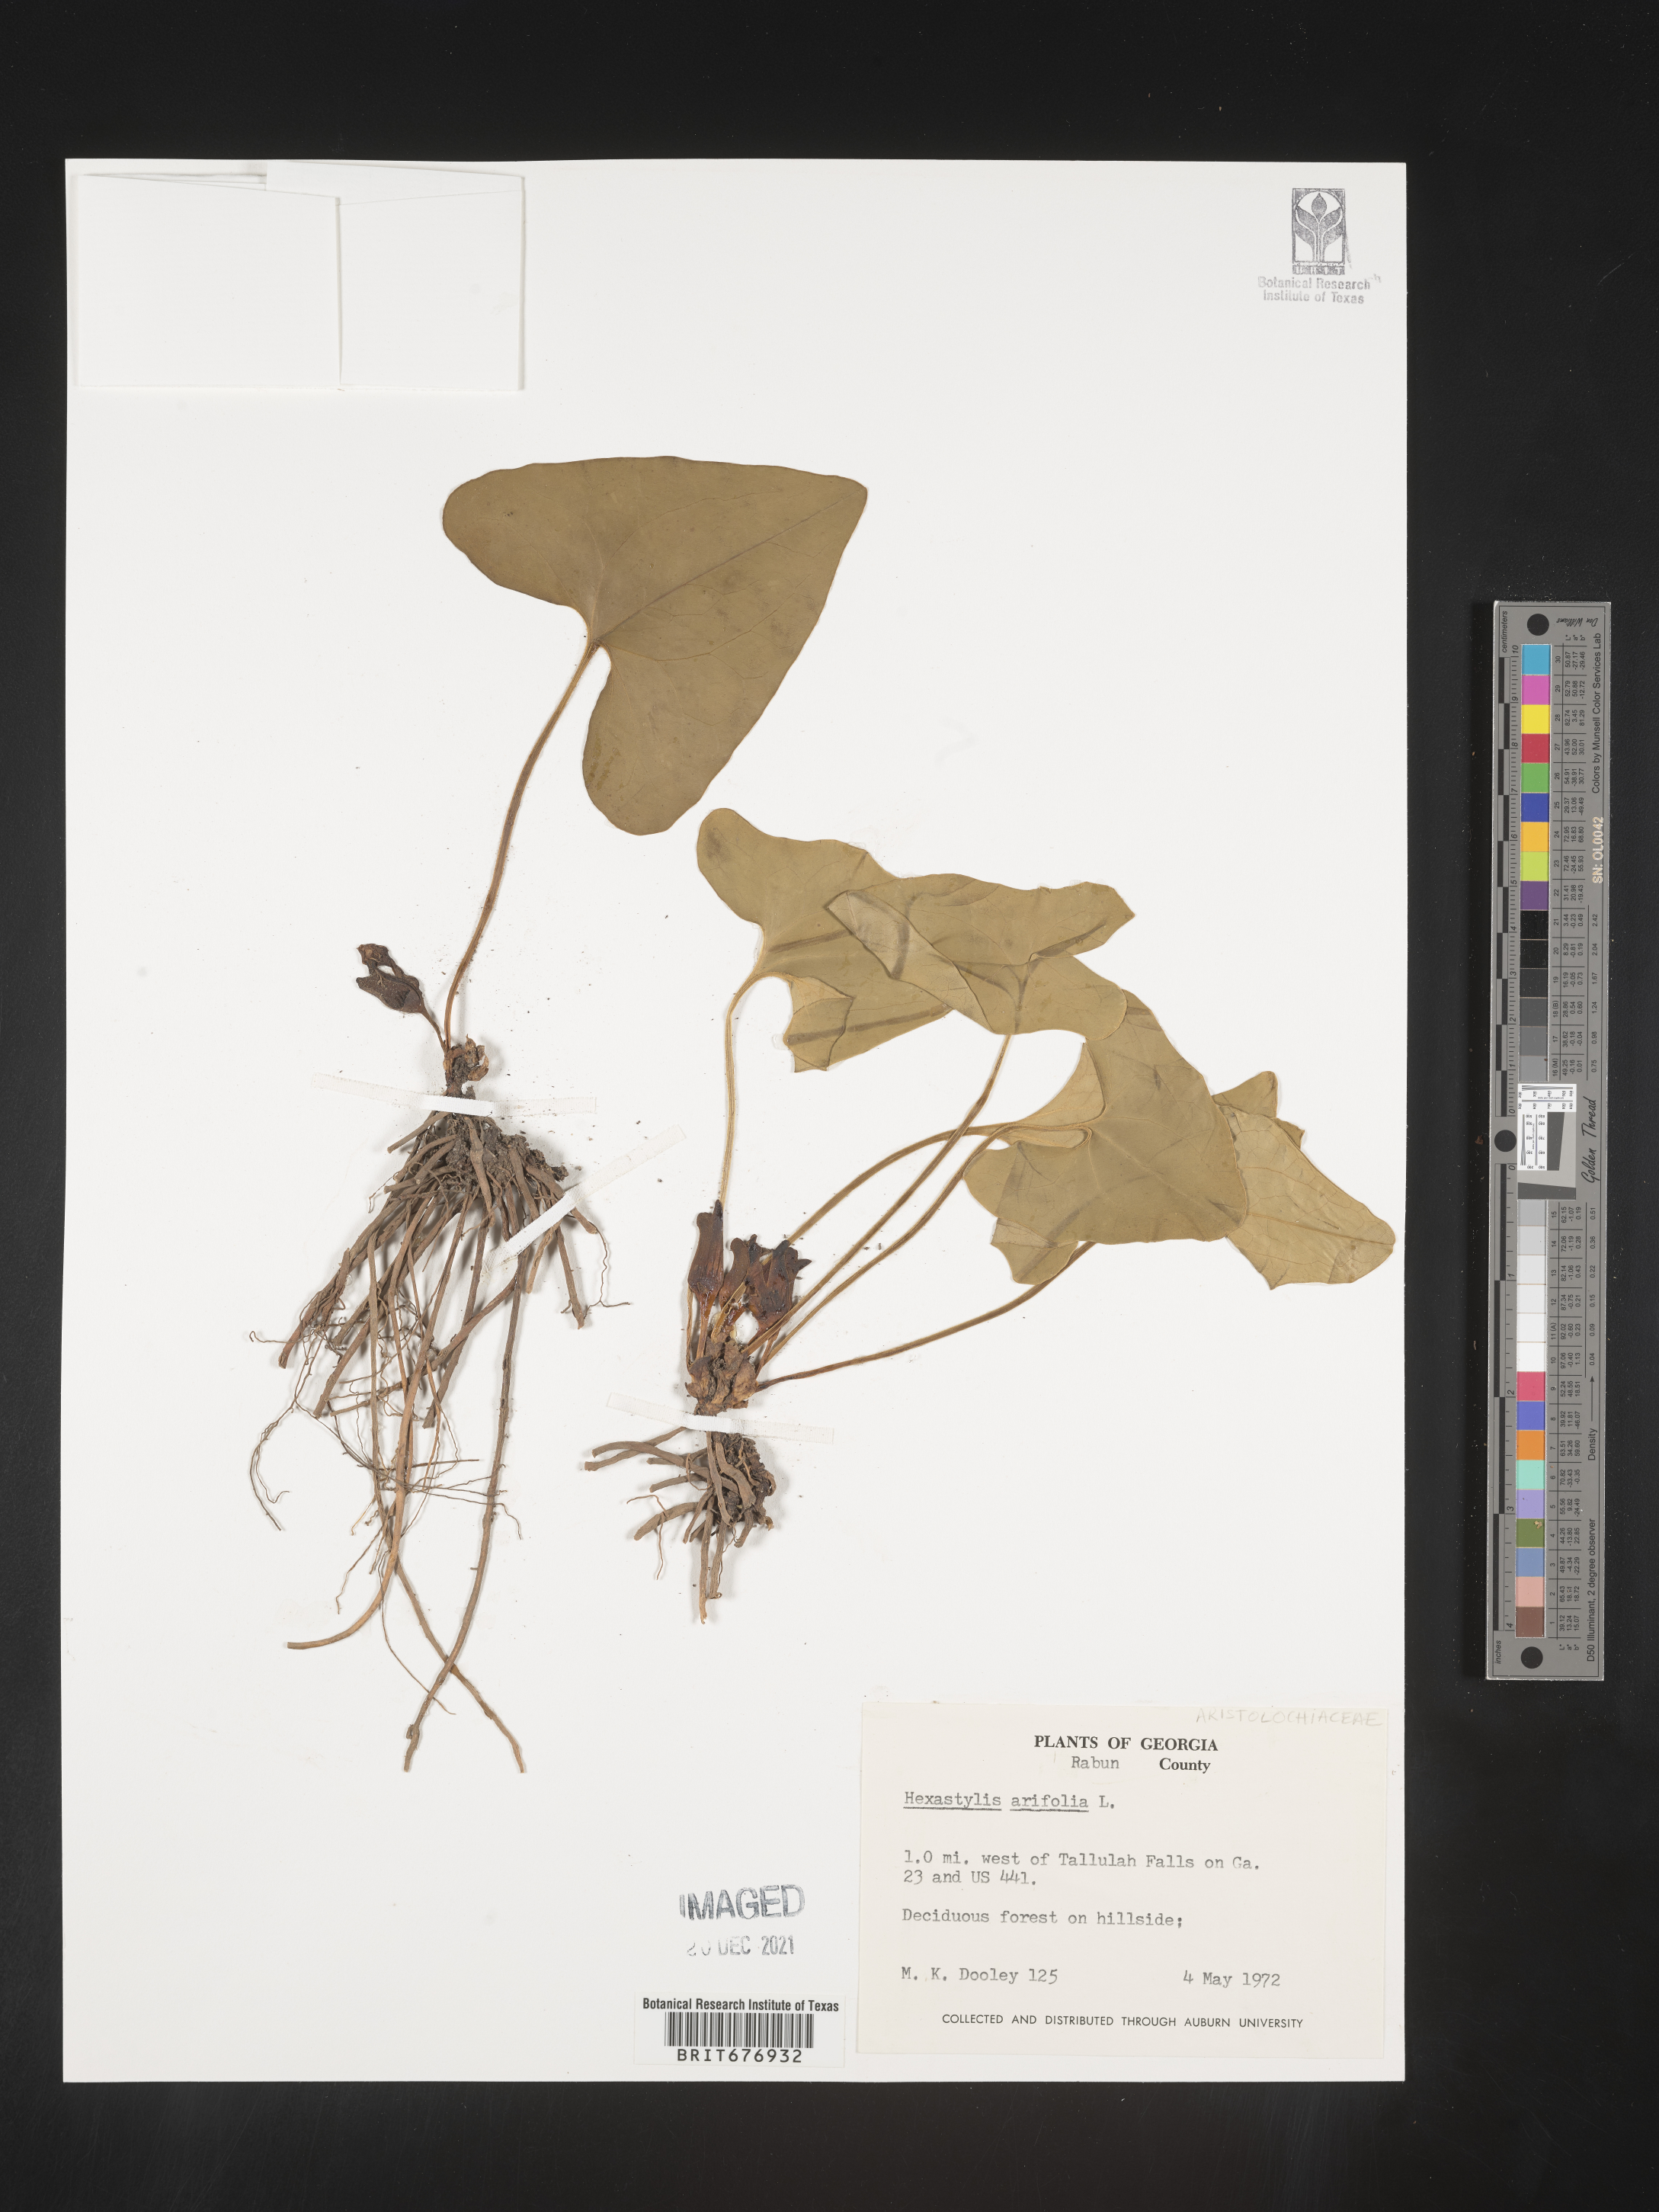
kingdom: Plantae
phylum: Tracheophyta
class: Magnoliopsida
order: Piperales
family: Aristolochiaceae
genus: Hexastylis
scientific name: Hexastylis
